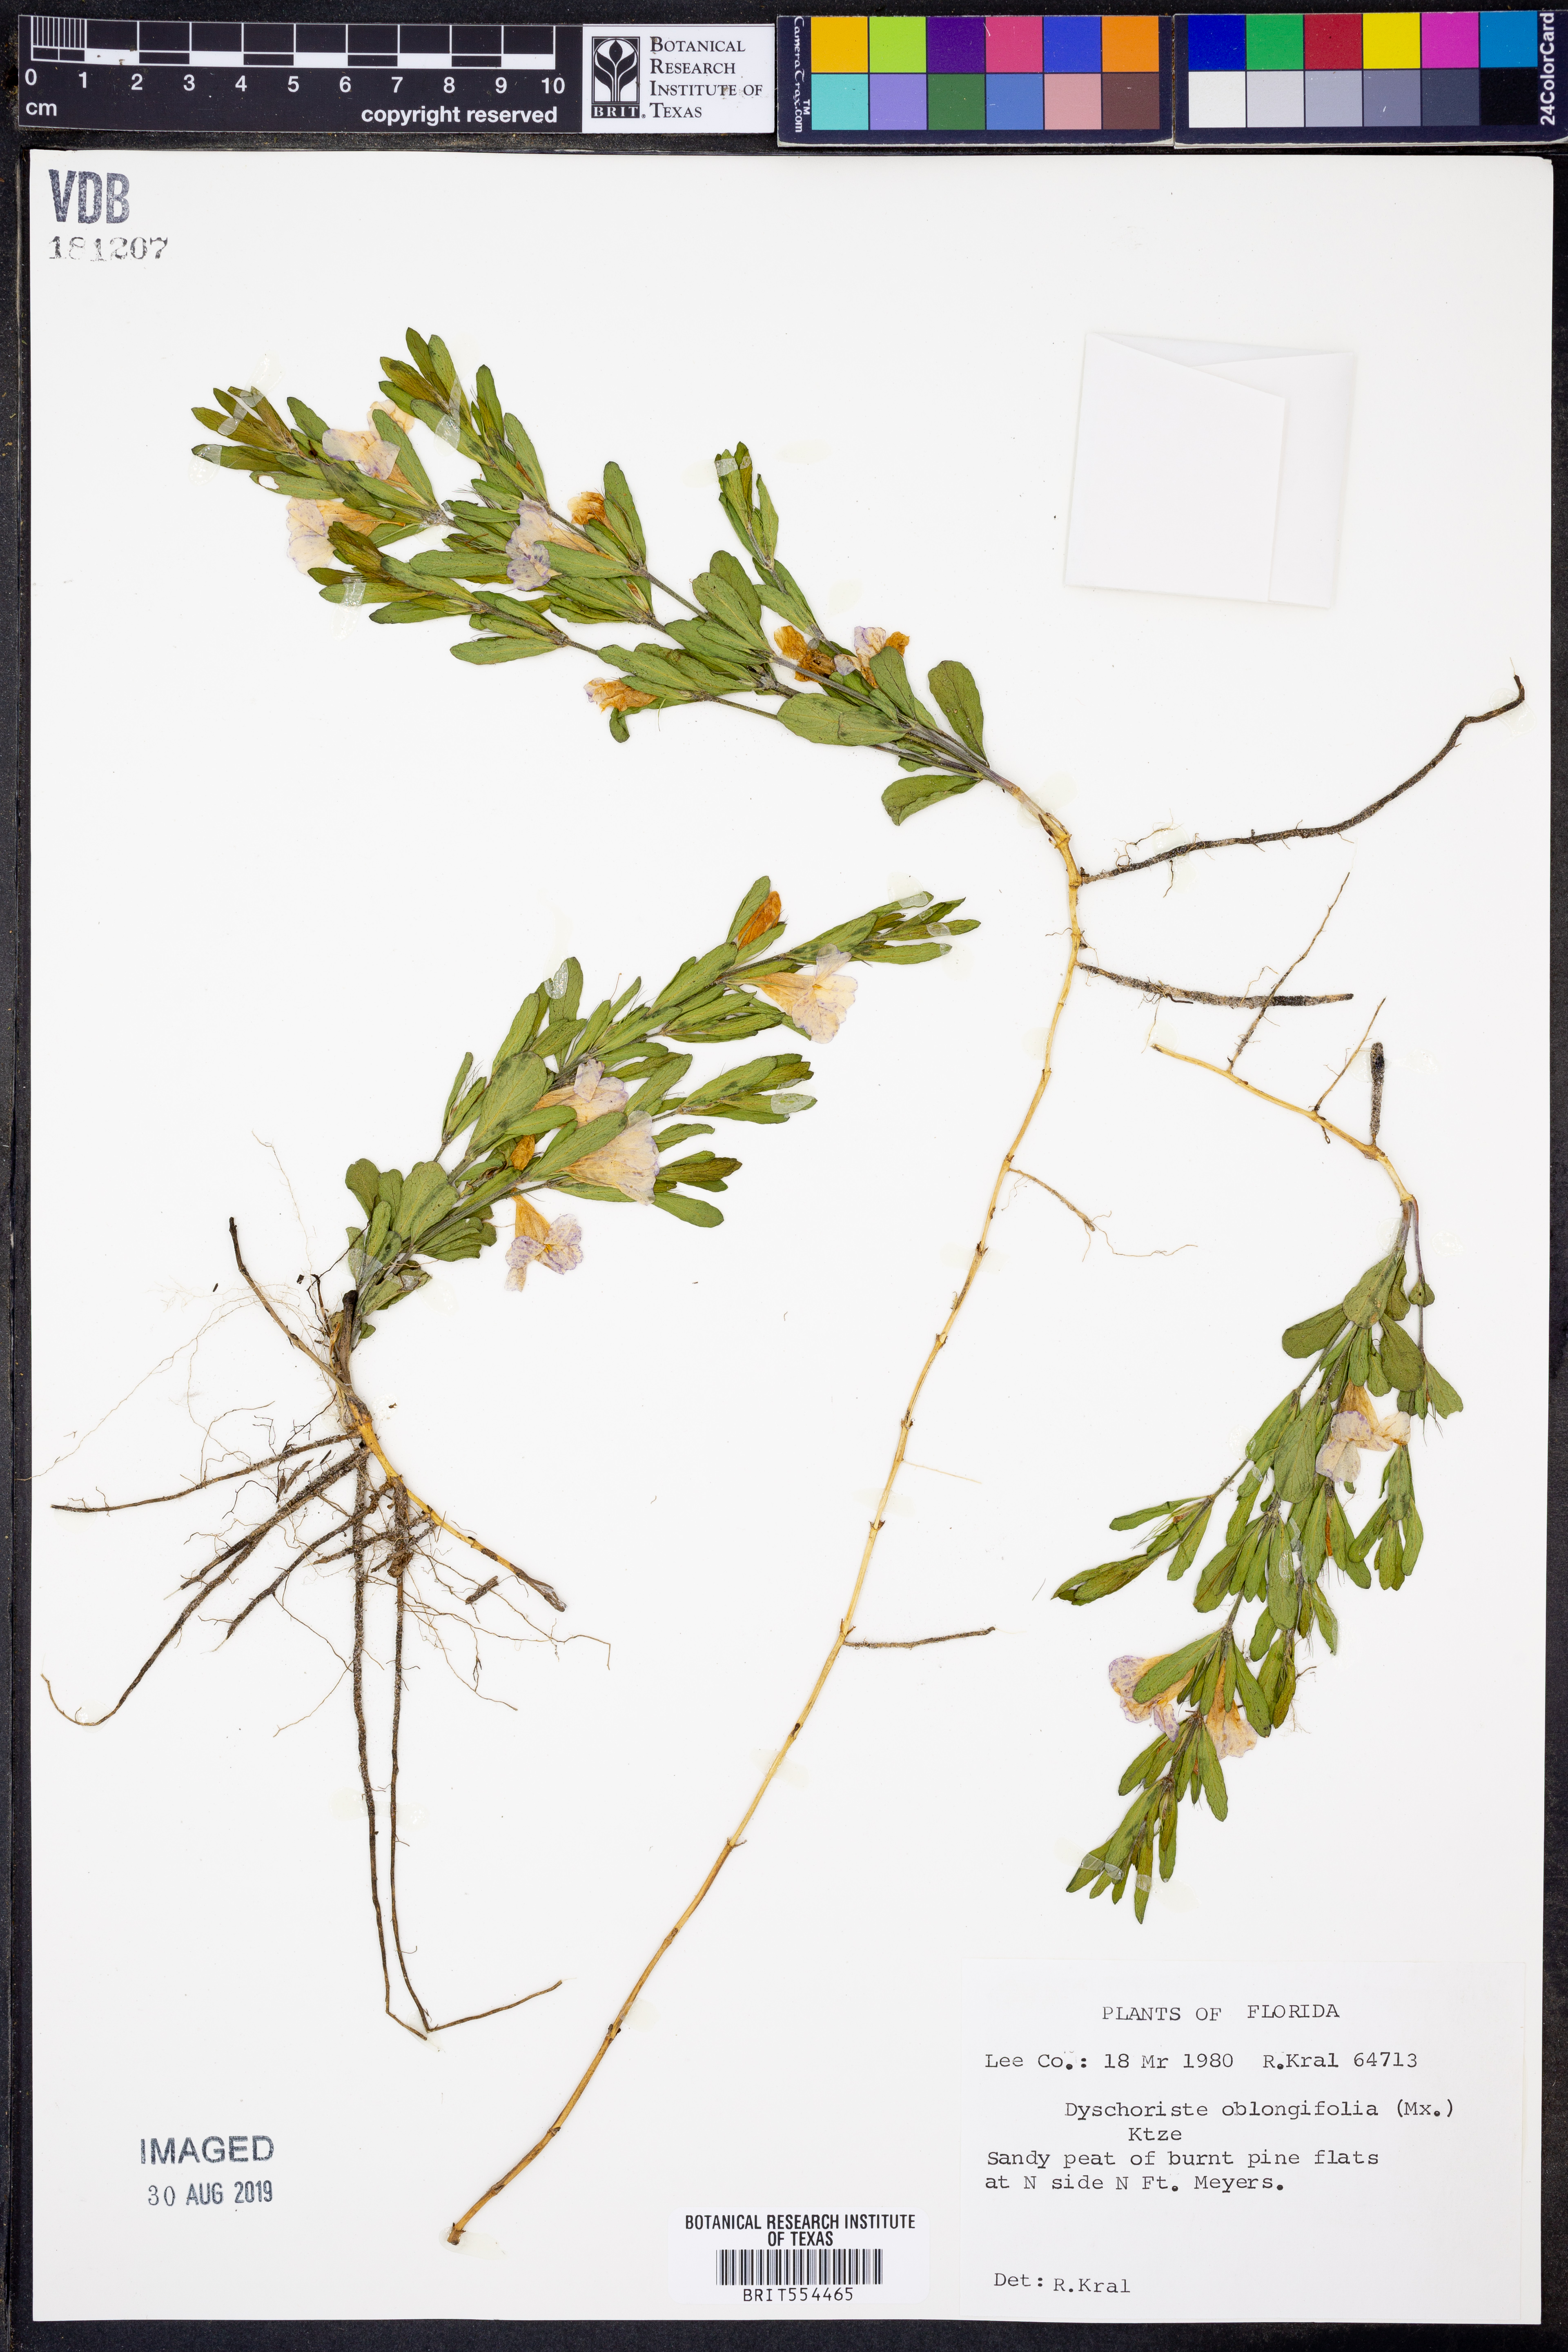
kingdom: Plantae
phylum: Tracheophyta
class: Magnoliopsida
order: Lamiales
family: Acanthaceae
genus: Dyschoriste
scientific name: Dyschoriste oblongifolia
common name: Blue twinflower
